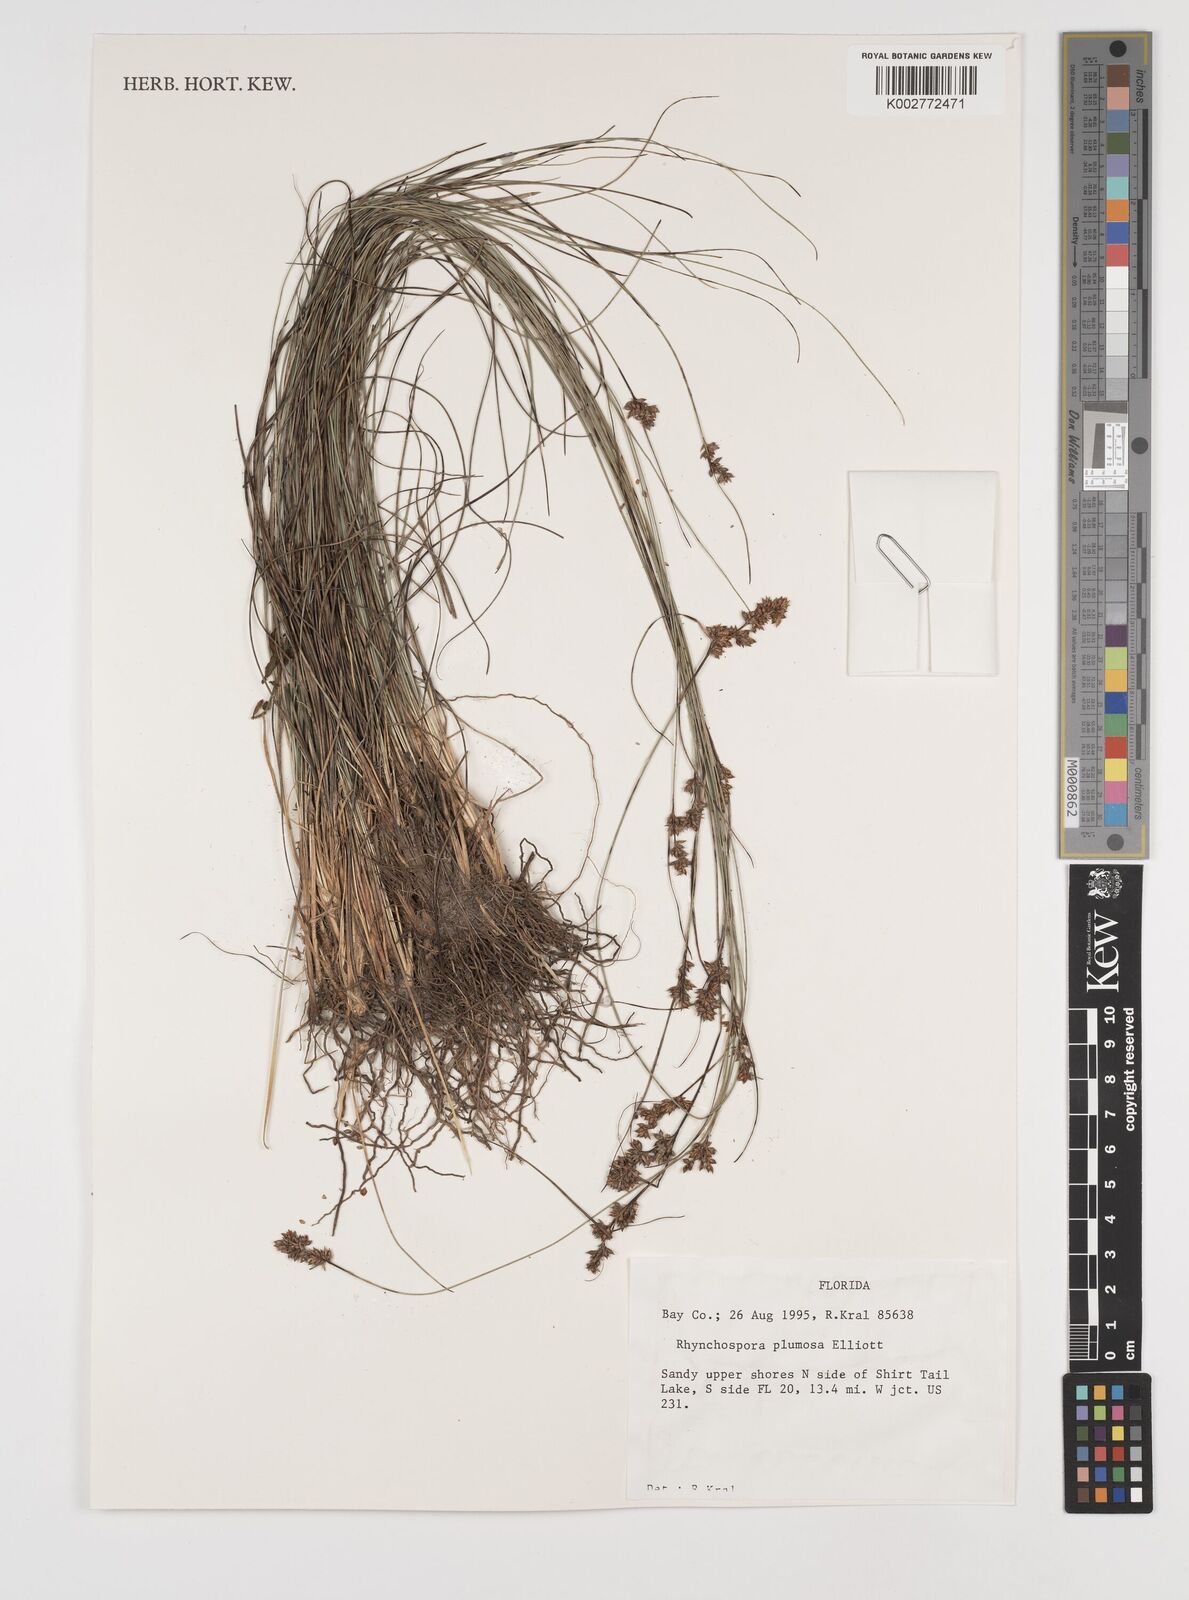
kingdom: Plantae
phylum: Tracheophyta
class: Liliopsida
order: Poales
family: Cyperaceae
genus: Rhynchospora
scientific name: Rhynchospora plumosa
